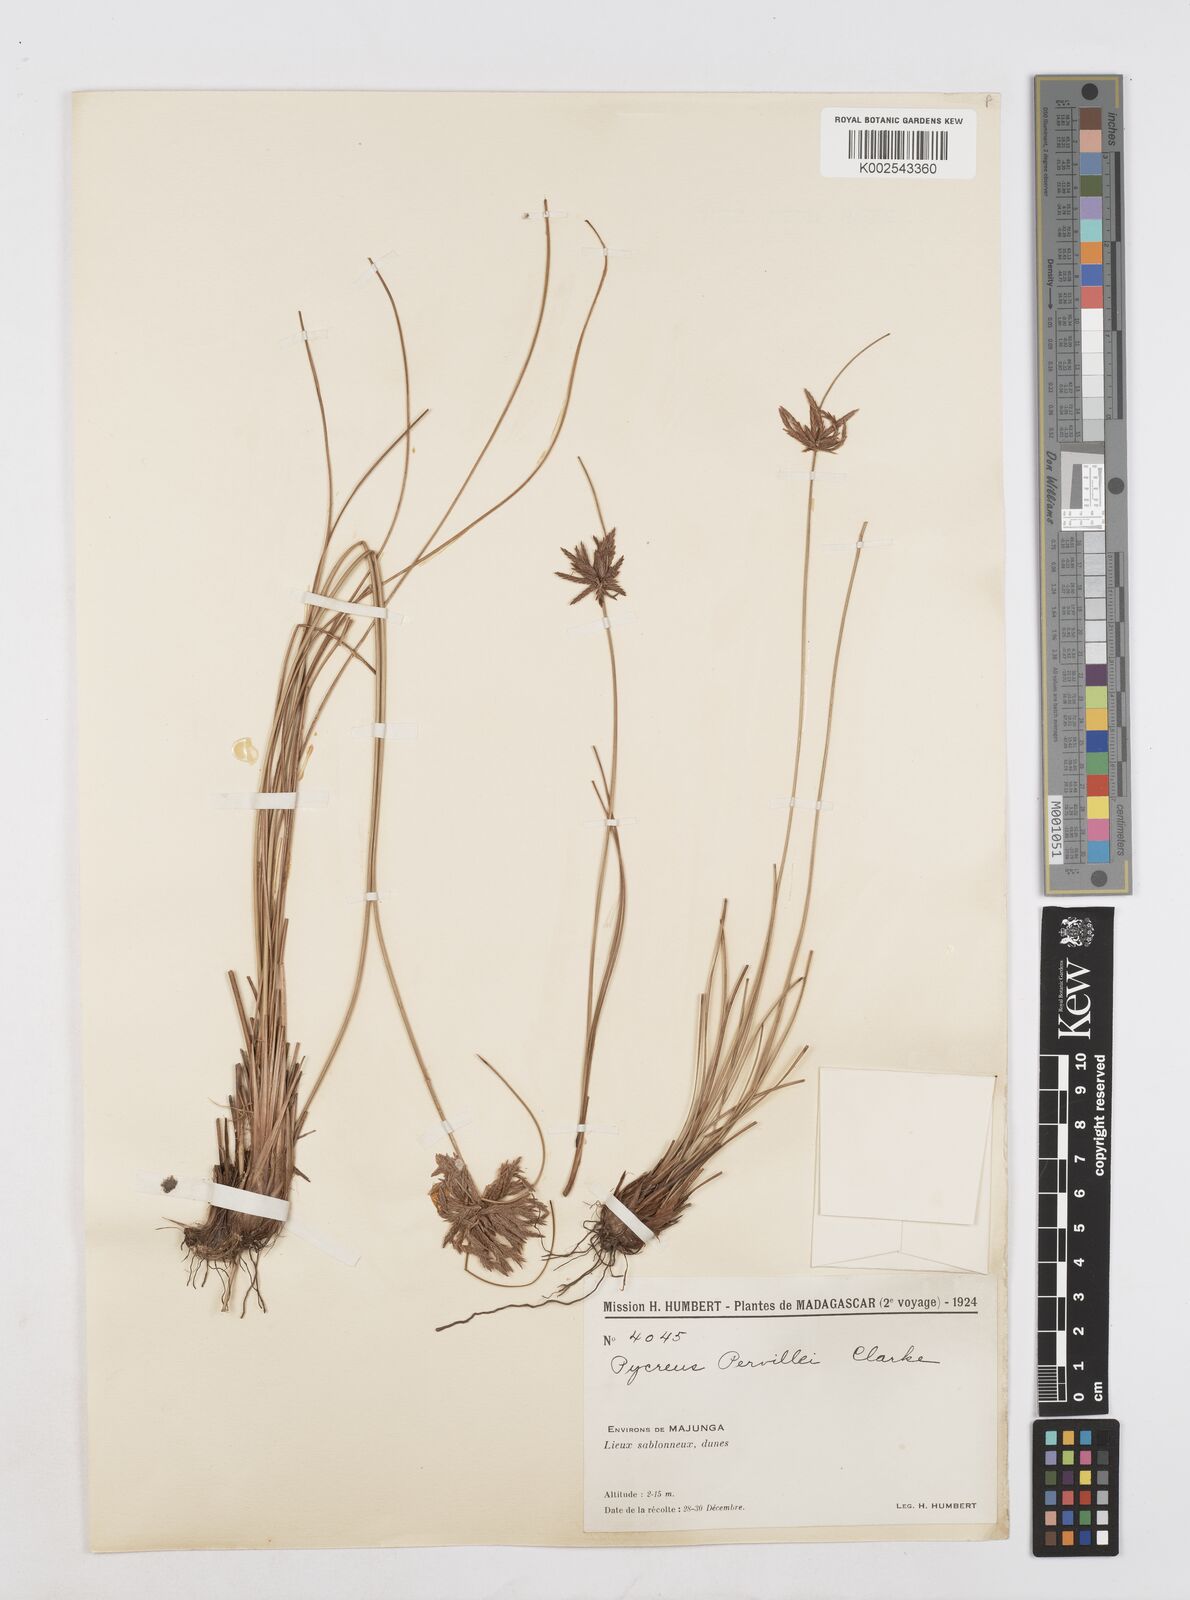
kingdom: Plantae
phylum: Tracheophyta
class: Liliopsida
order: Poales
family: Cyperaceae
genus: Cyperus
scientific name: Cyperus pervillei
